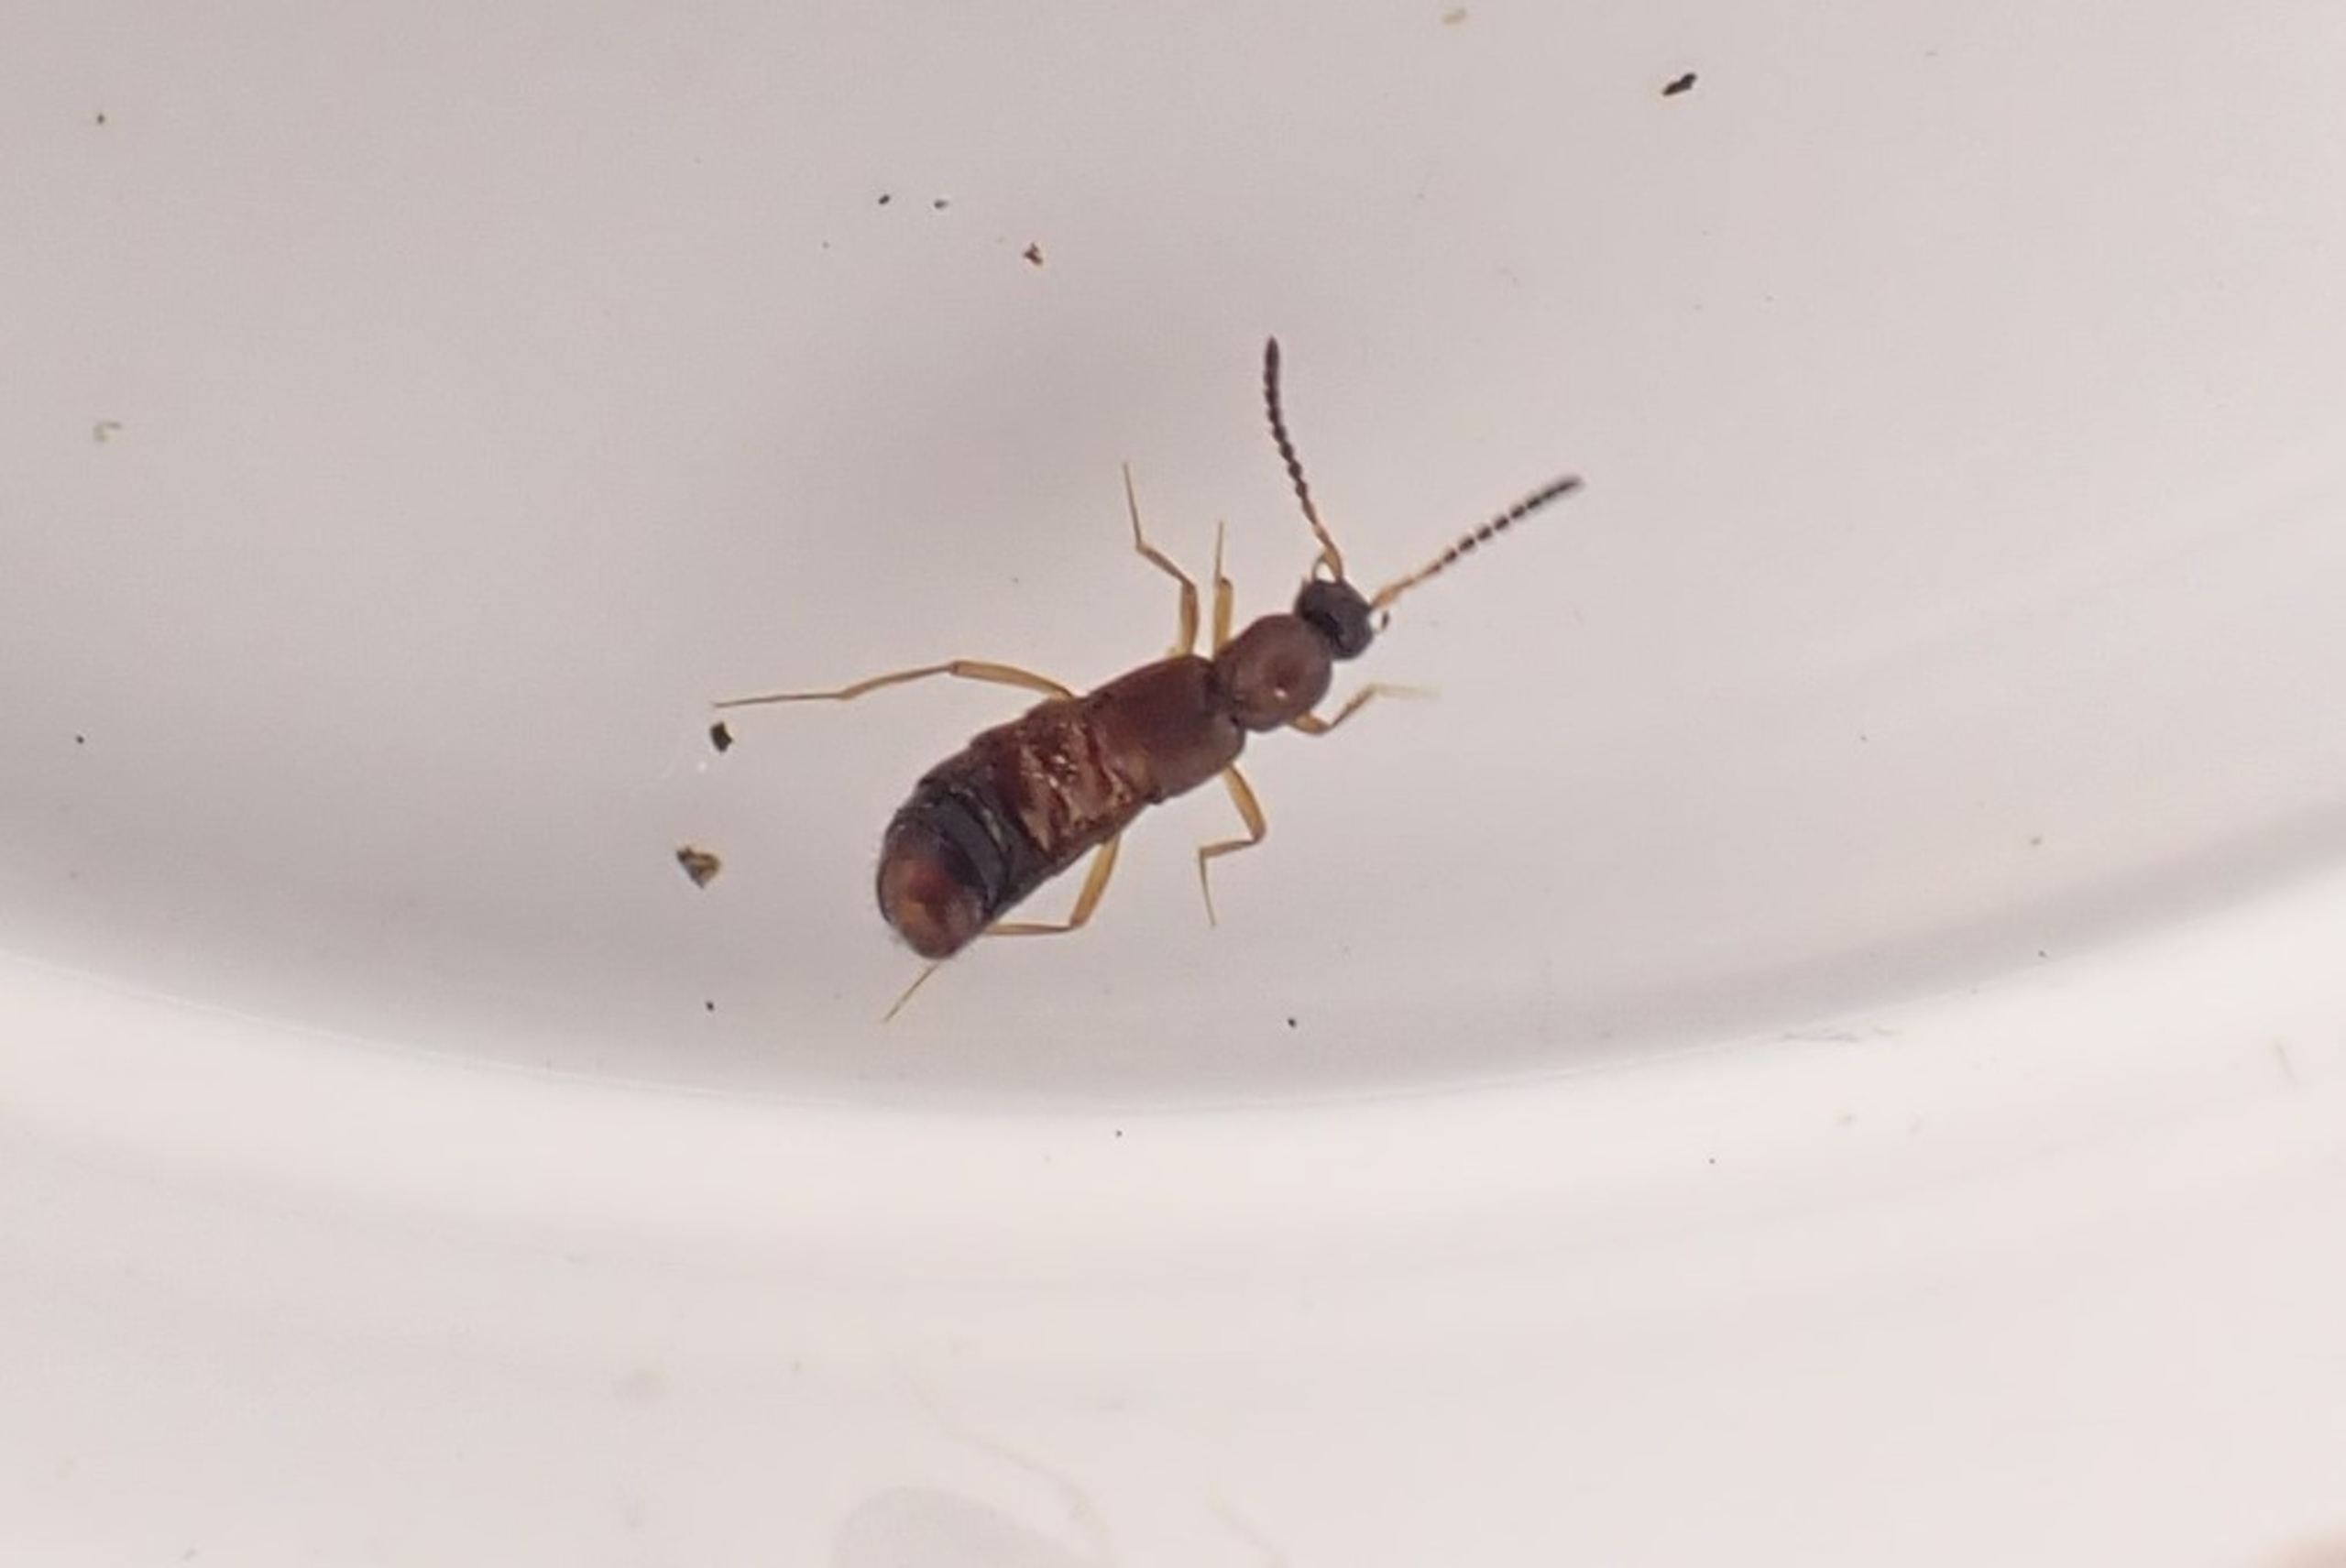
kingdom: Animalia
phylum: Arthropoda
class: Insecta
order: Coleoptera
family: Staphylinidae
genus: Drusilla
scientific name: Drusilla canaliculata
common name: Myrerøver
